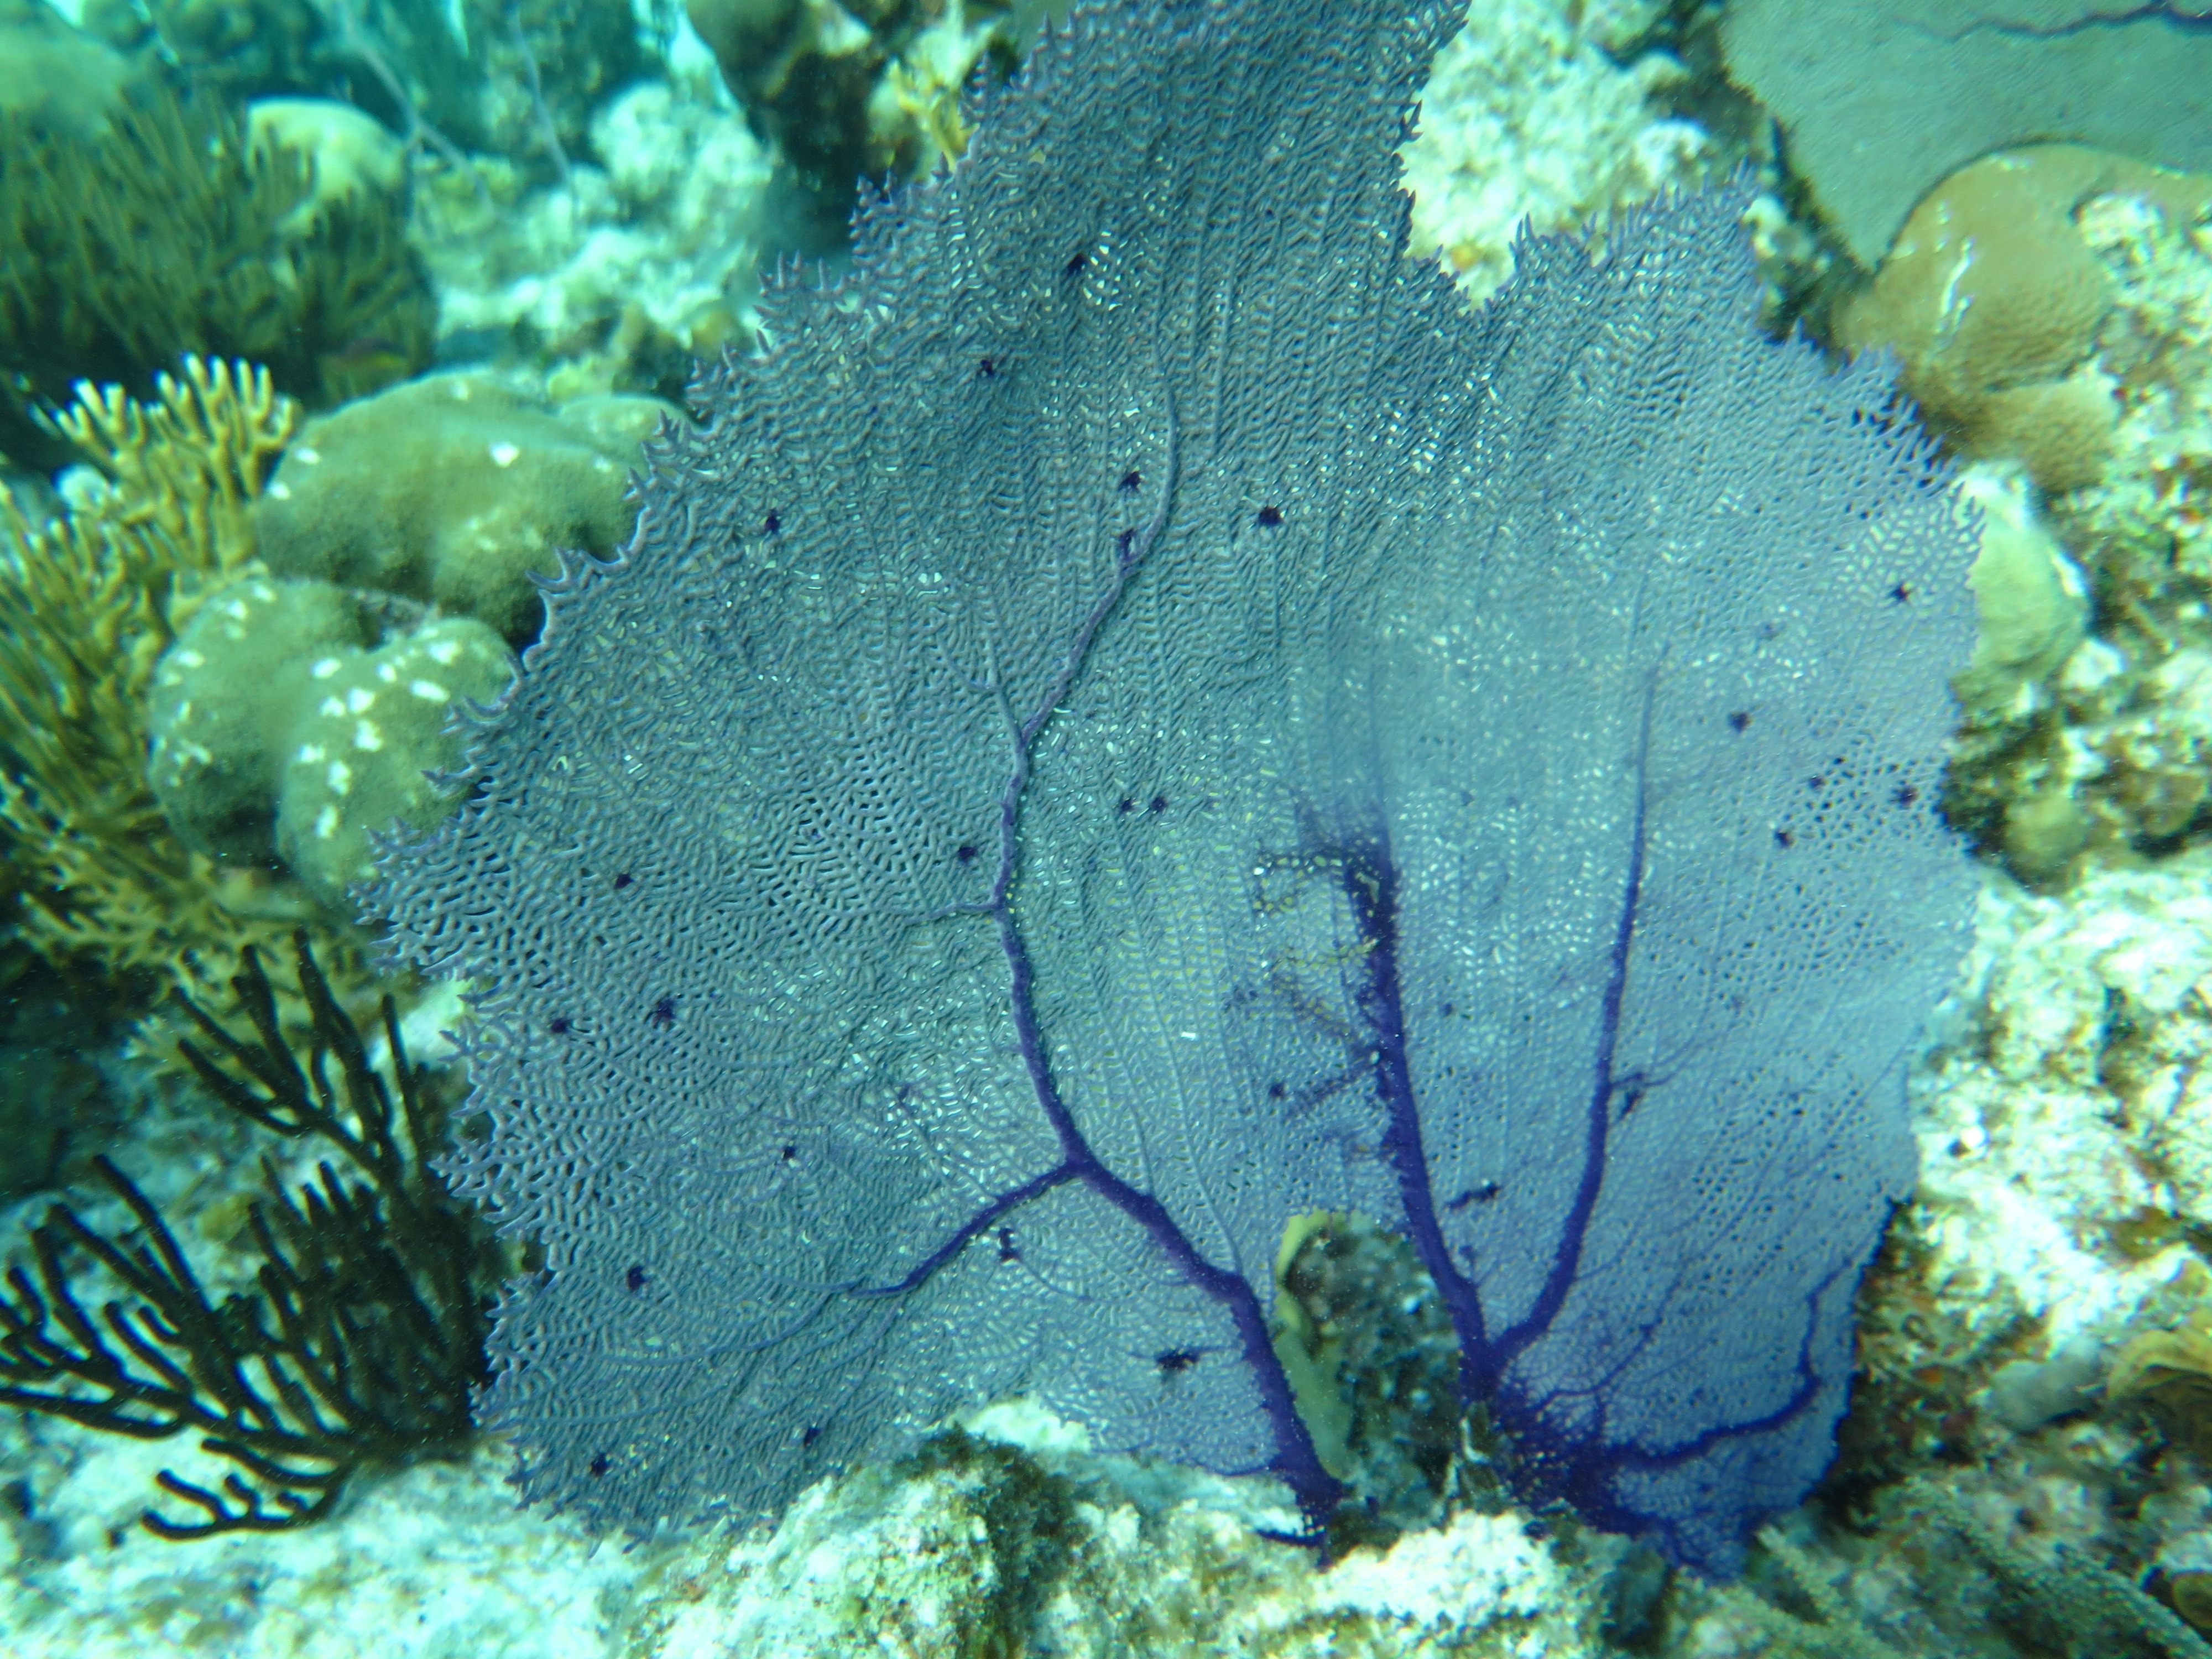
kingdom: Animalia
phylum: Cnidaria
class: Anthozoa
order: Malacalcyonacea
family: Gorgoniidae
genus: Gorgonia
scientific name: Gorgonia ventalina
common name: Common sea fan
